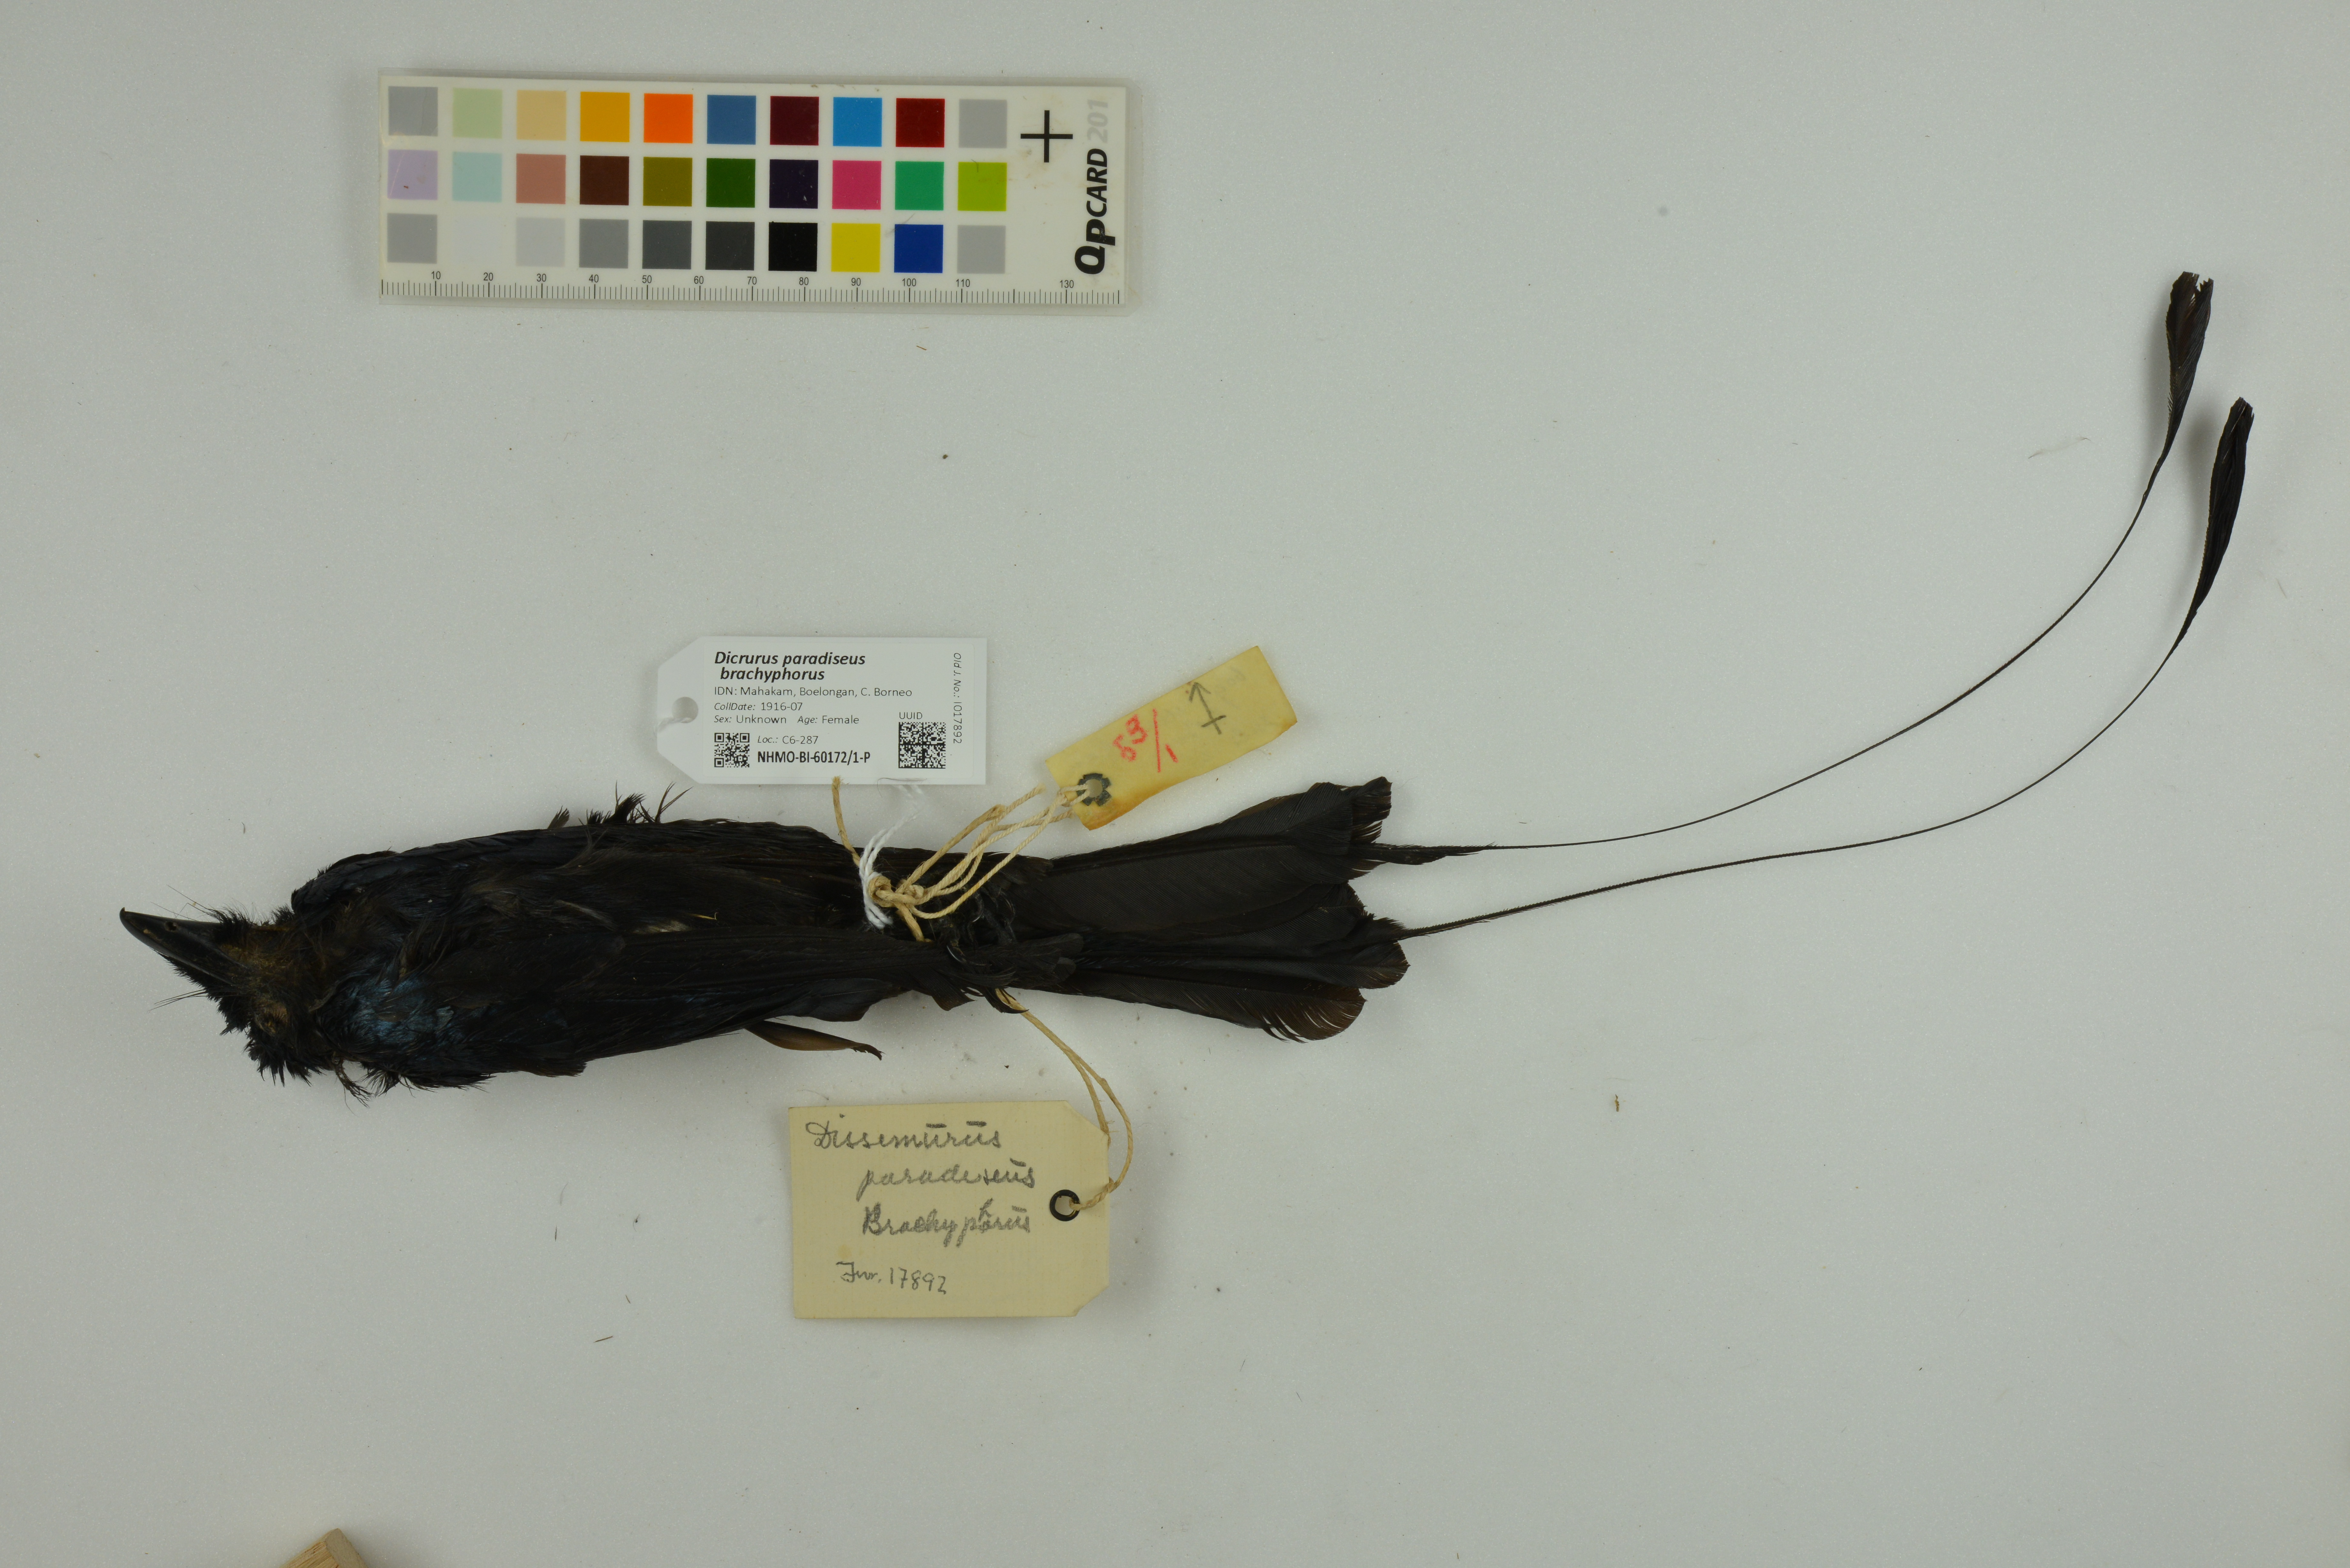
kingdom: Animalia
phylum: Chordata
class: Aves
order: Passeriformes
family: Dicruridae
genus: Dicrurus
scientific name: Dicrurus paradiseus
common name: Greater racket-tailed drongo
